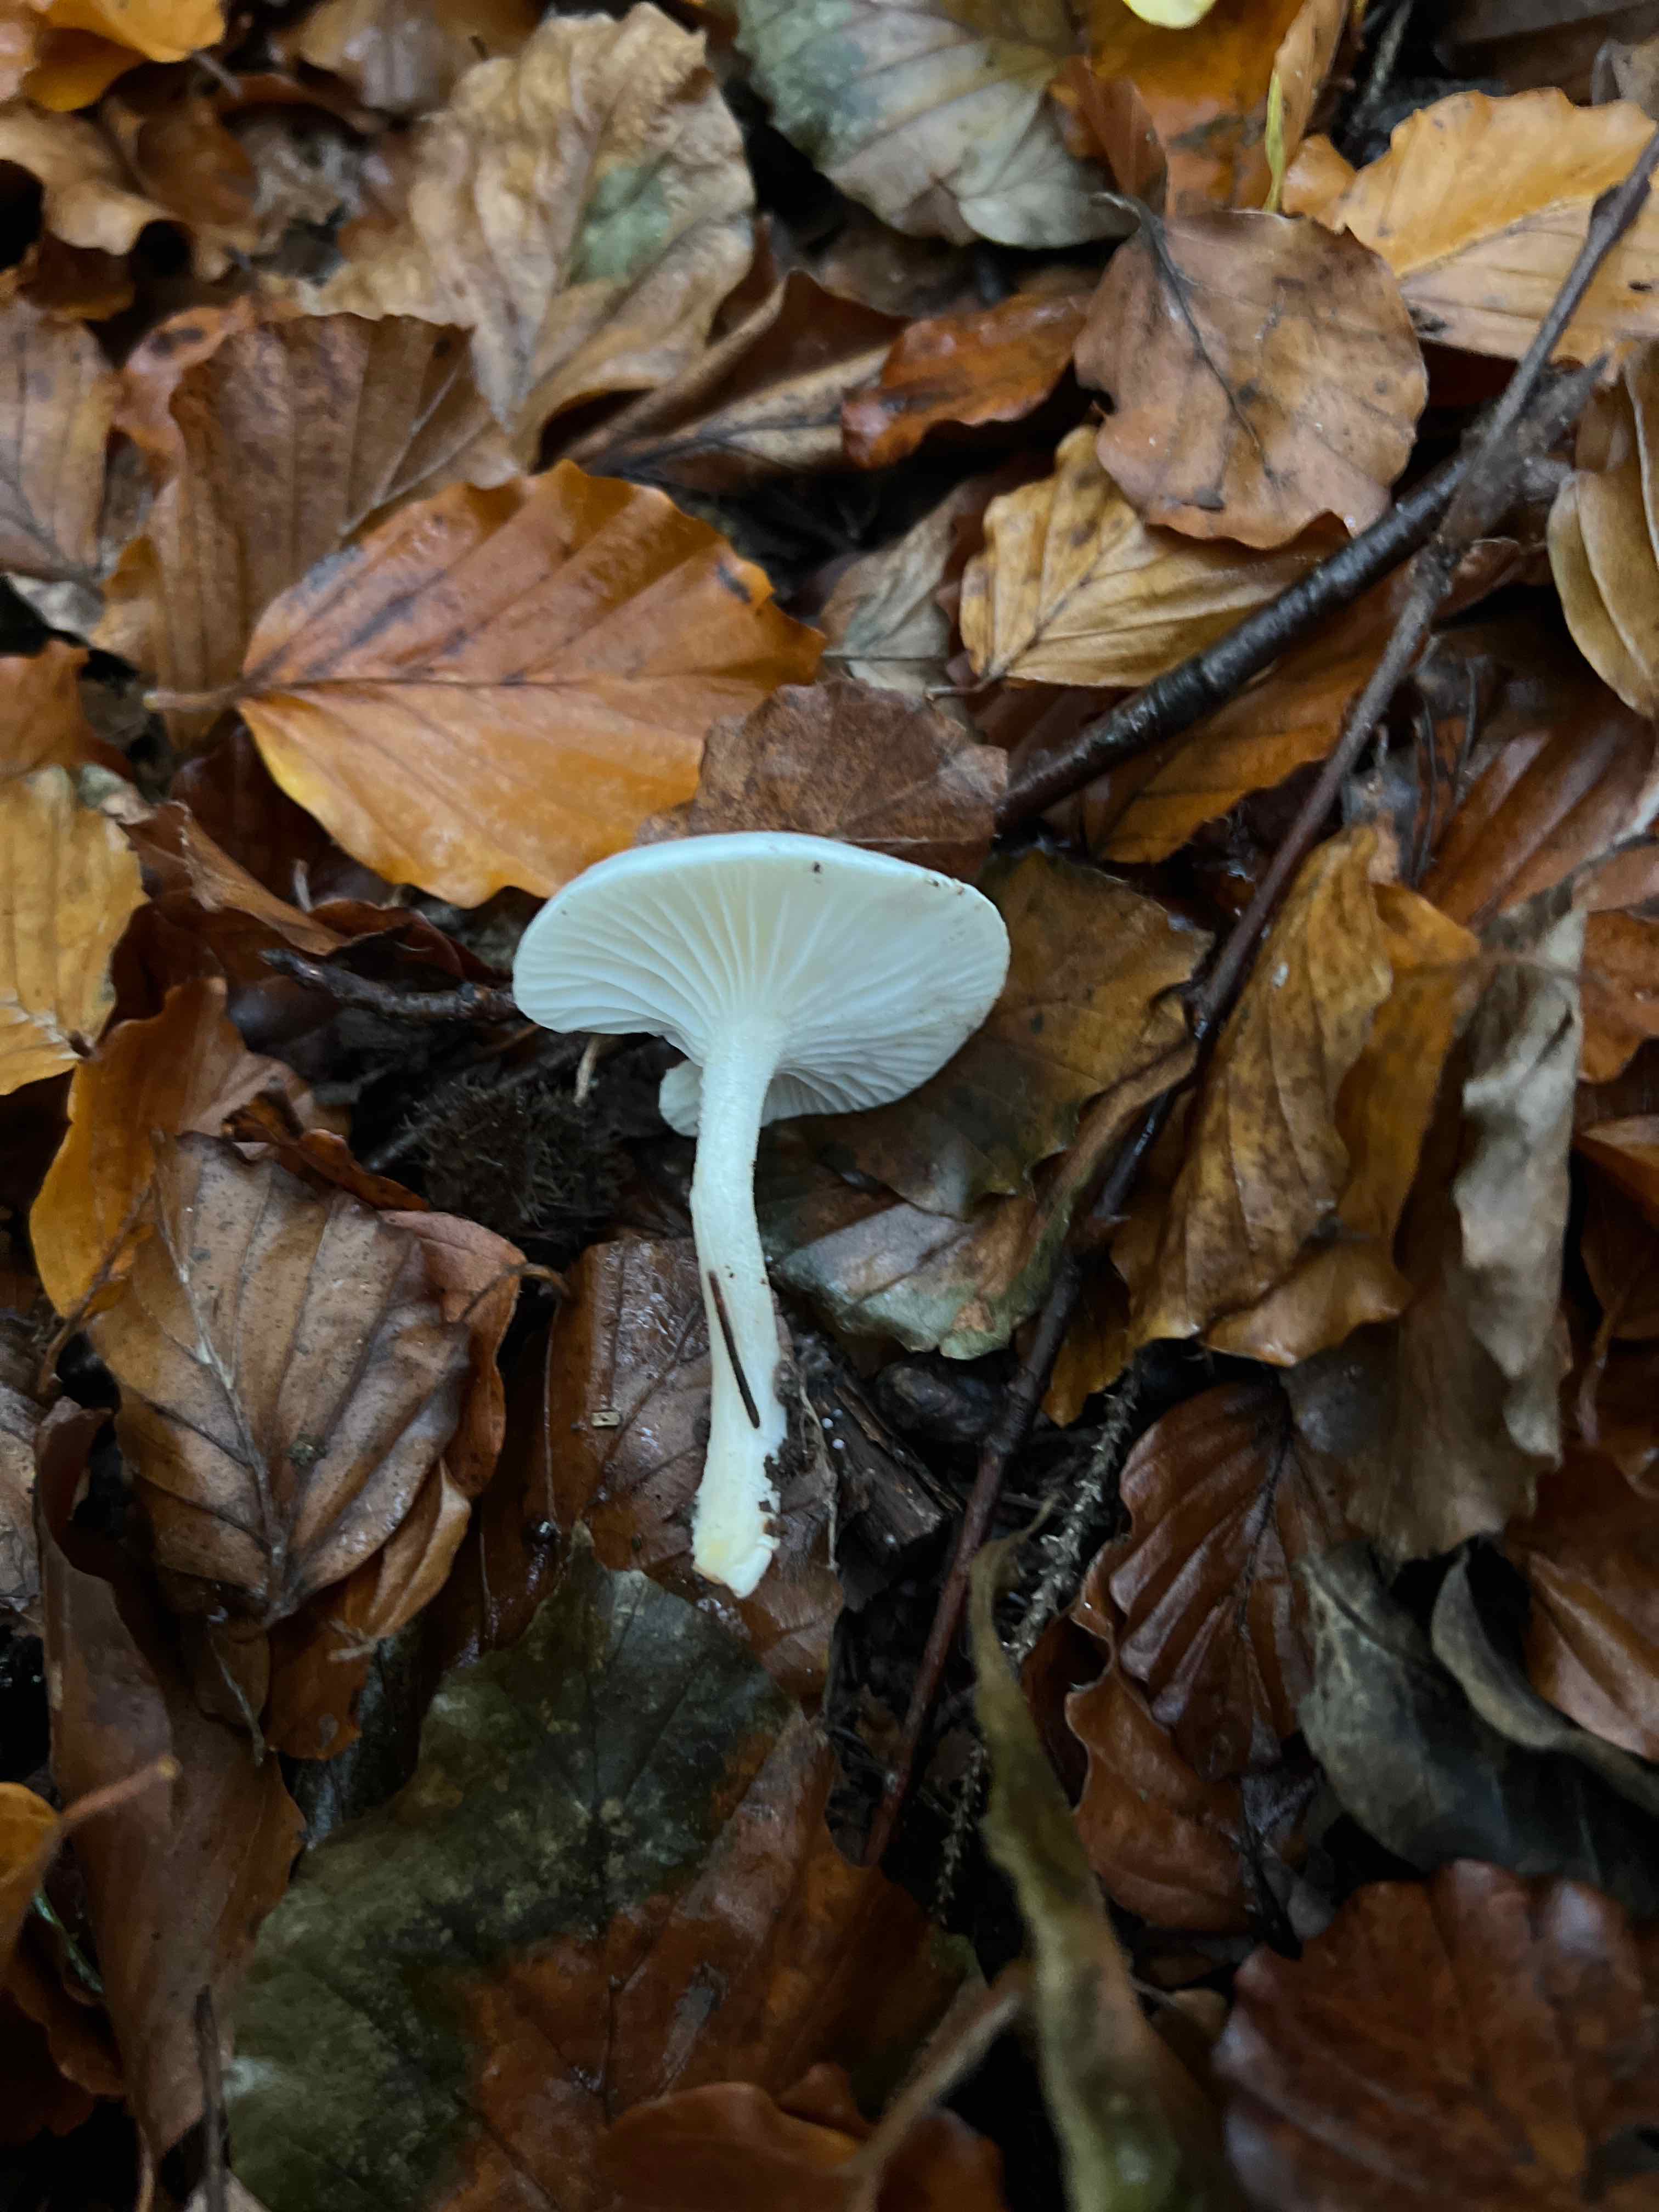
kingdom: Fungi
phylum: Basidiomycota
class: Agaricomycetes
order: Agaricales
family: Hygrophoraceae
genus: Hygrophorus
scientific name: Hygrophorus eburneus
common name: elfenbens-sneglehat
